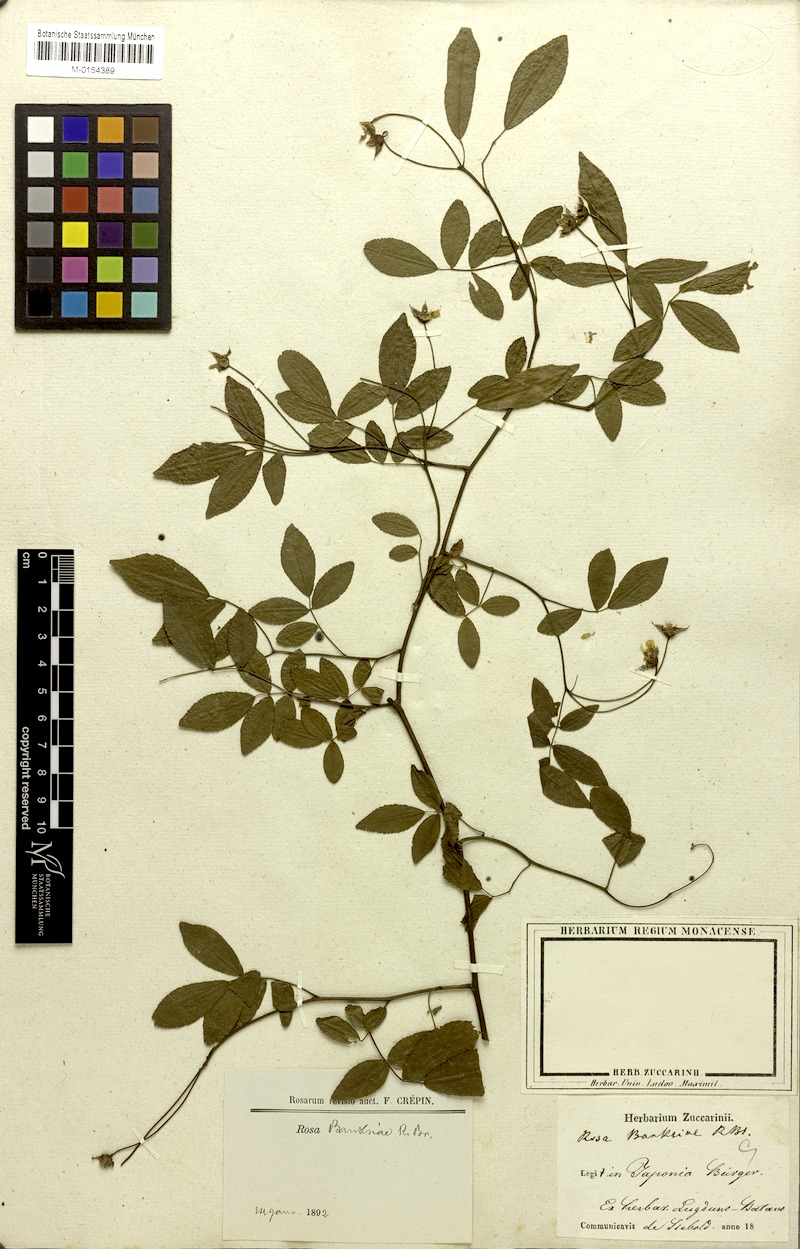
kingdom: Plantae
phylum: Tracheophyta
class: Magnoliopsida
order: Rosales
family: Rosaceae
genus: Rosa
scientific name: Rosa banksiae
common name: Banksian rose
